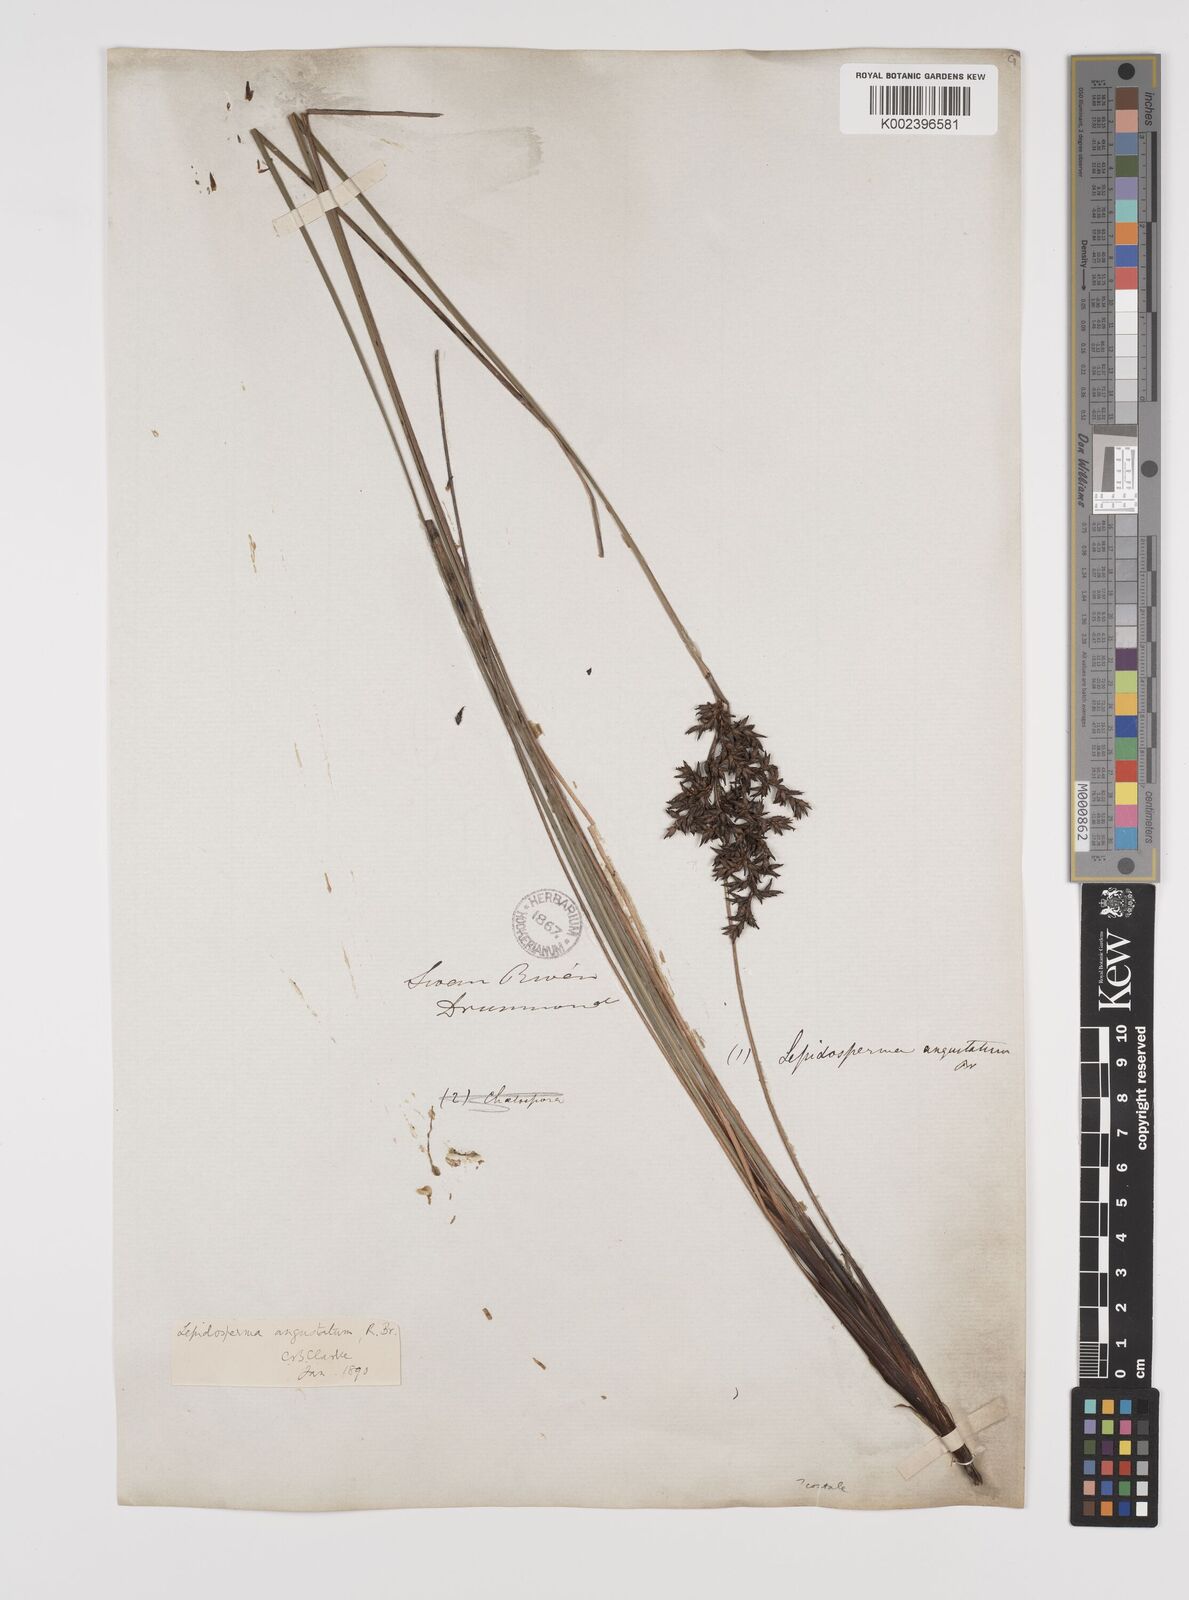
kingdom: Plantae
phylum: Tracheophyta
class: Liliopsida
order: Poales
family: Cyperaceae
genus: Lepidosperma
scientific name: Lepidosperma angustatum
